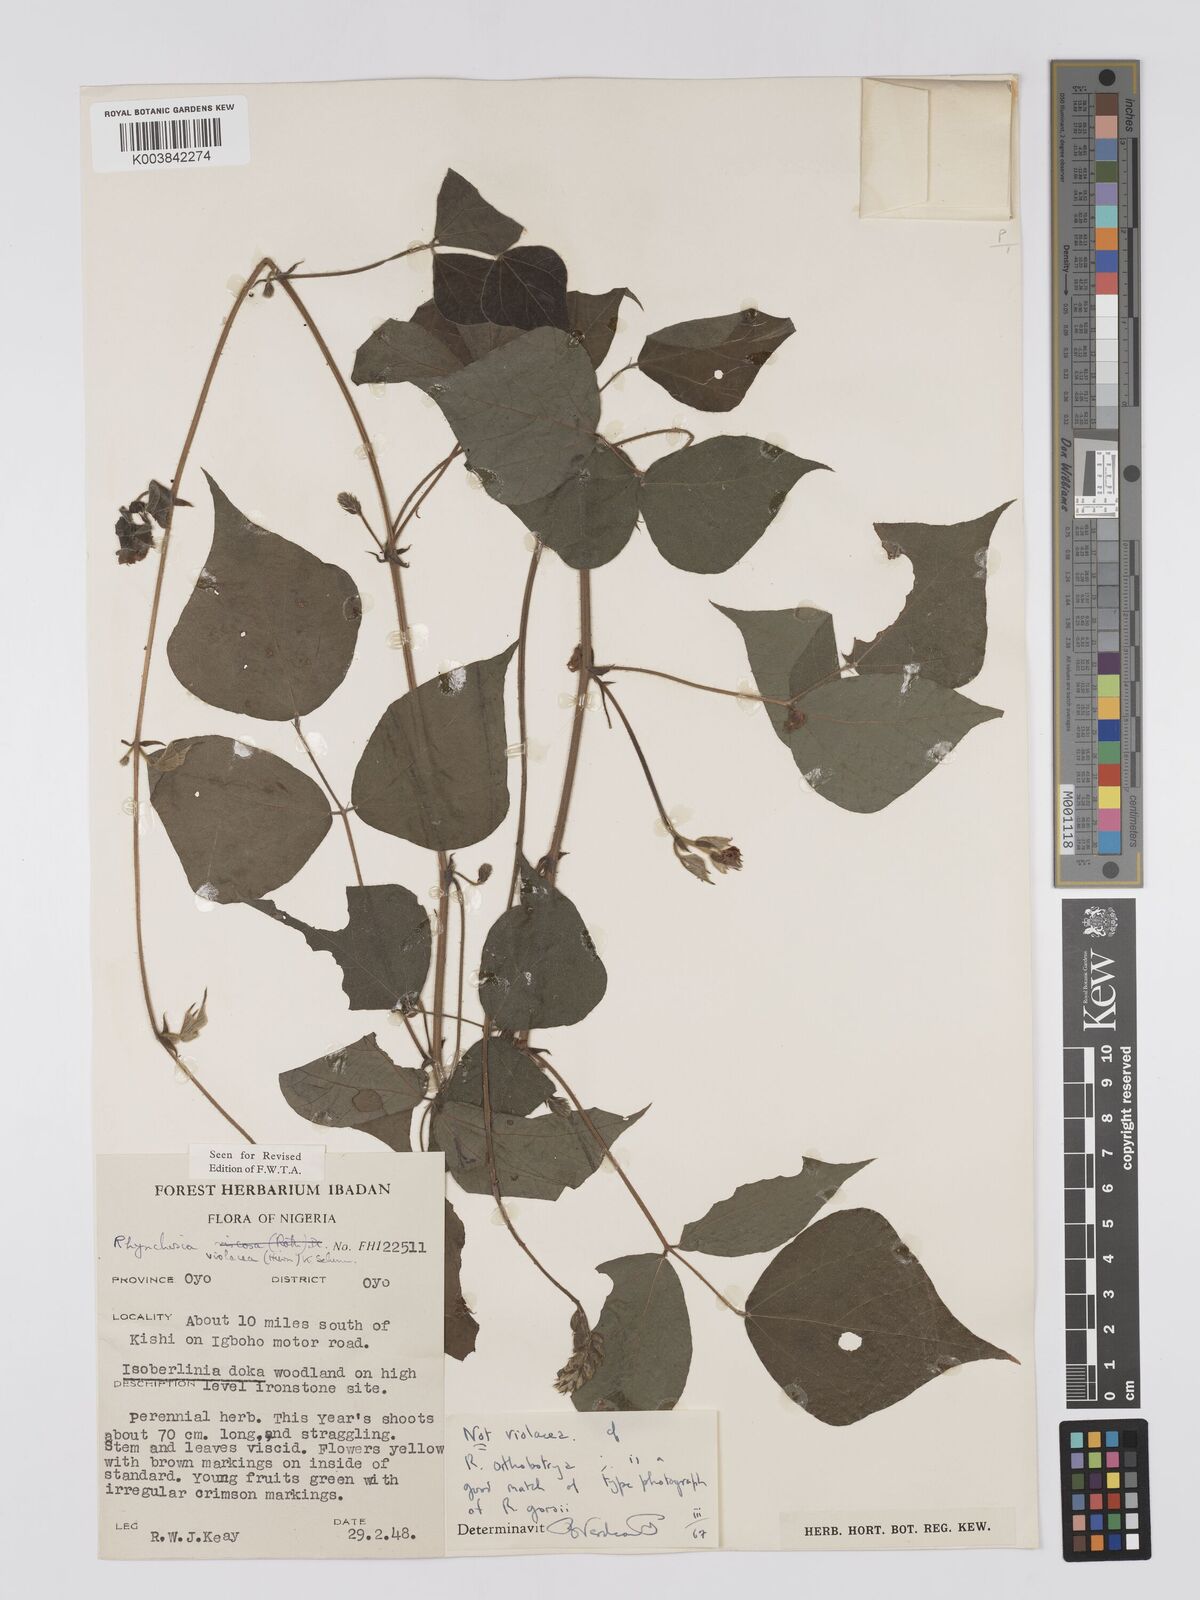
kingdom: Plantae
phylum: Tracheophyta
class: Magnoliopsida
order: Fabales
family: Fabaceae
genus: Rhynchosia
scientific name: Rhynchosia orthobotrya
